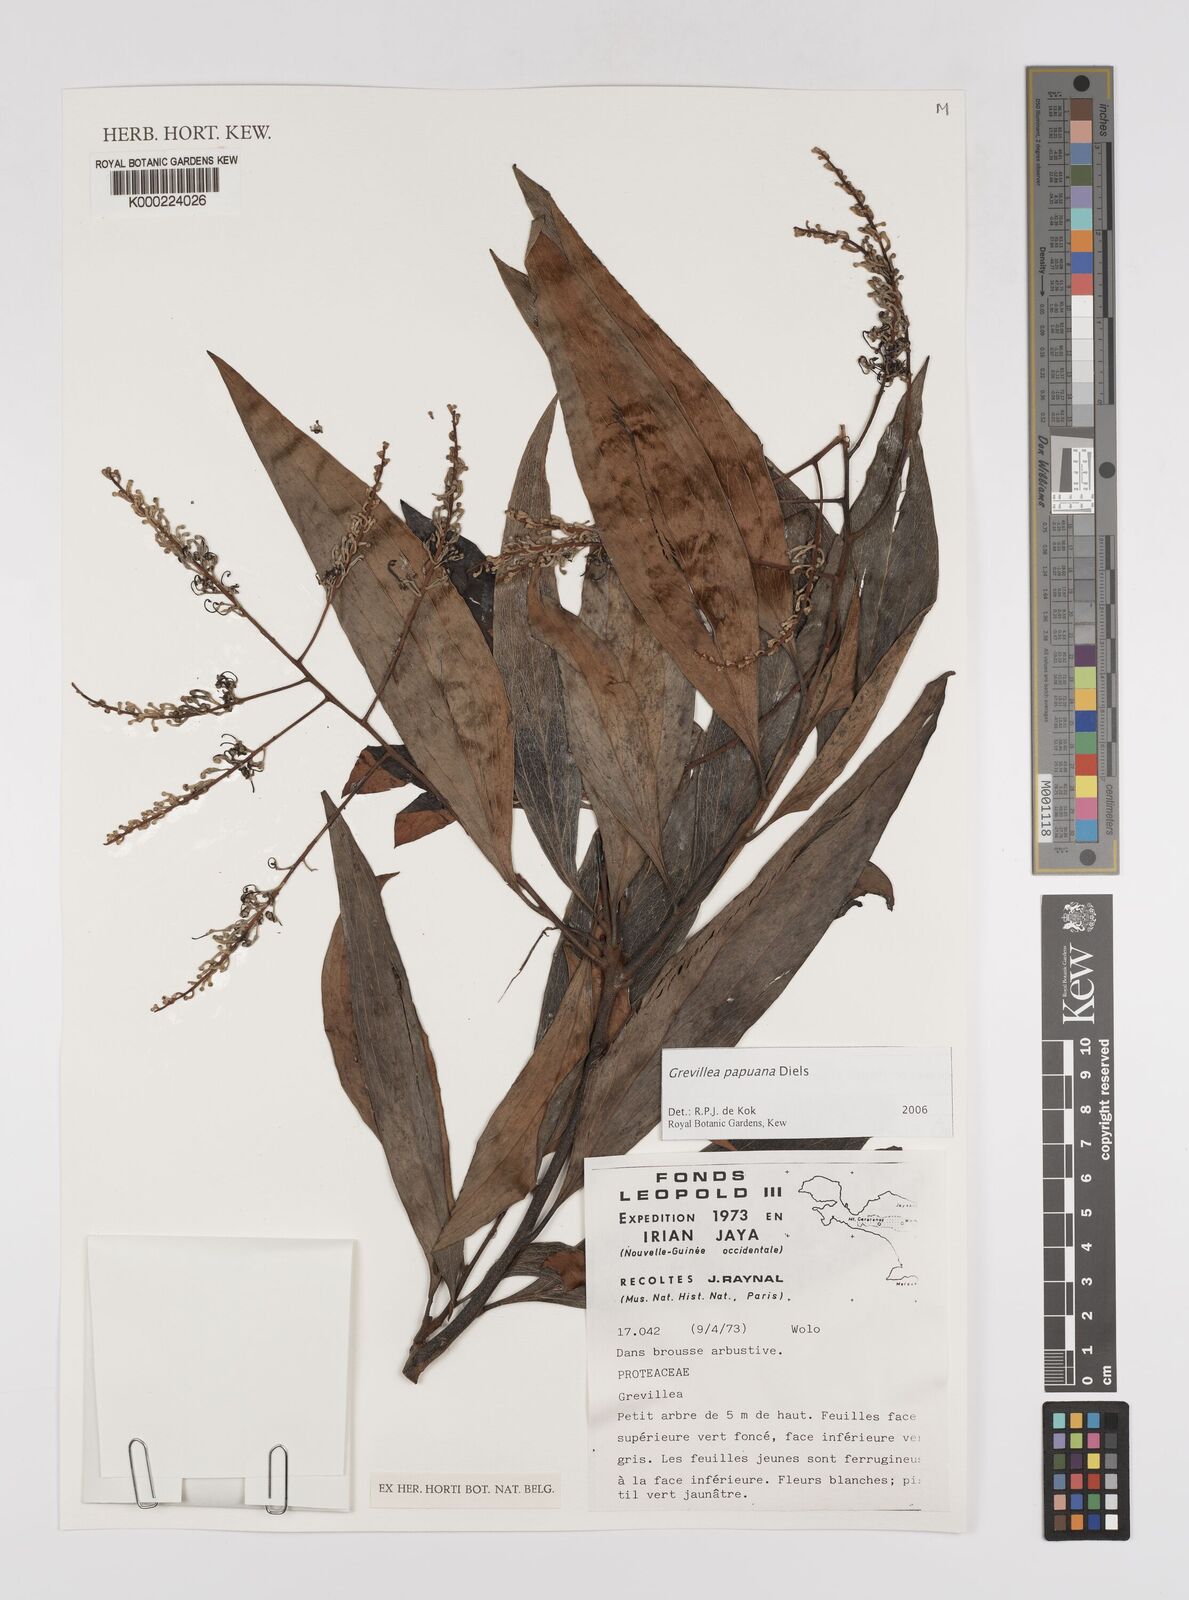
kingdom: Plantae
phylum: Tracheophyta
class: Magnoliopsida
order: Proteales
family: Proteaceae
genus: Grevillea
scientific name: Grevillea papuana
